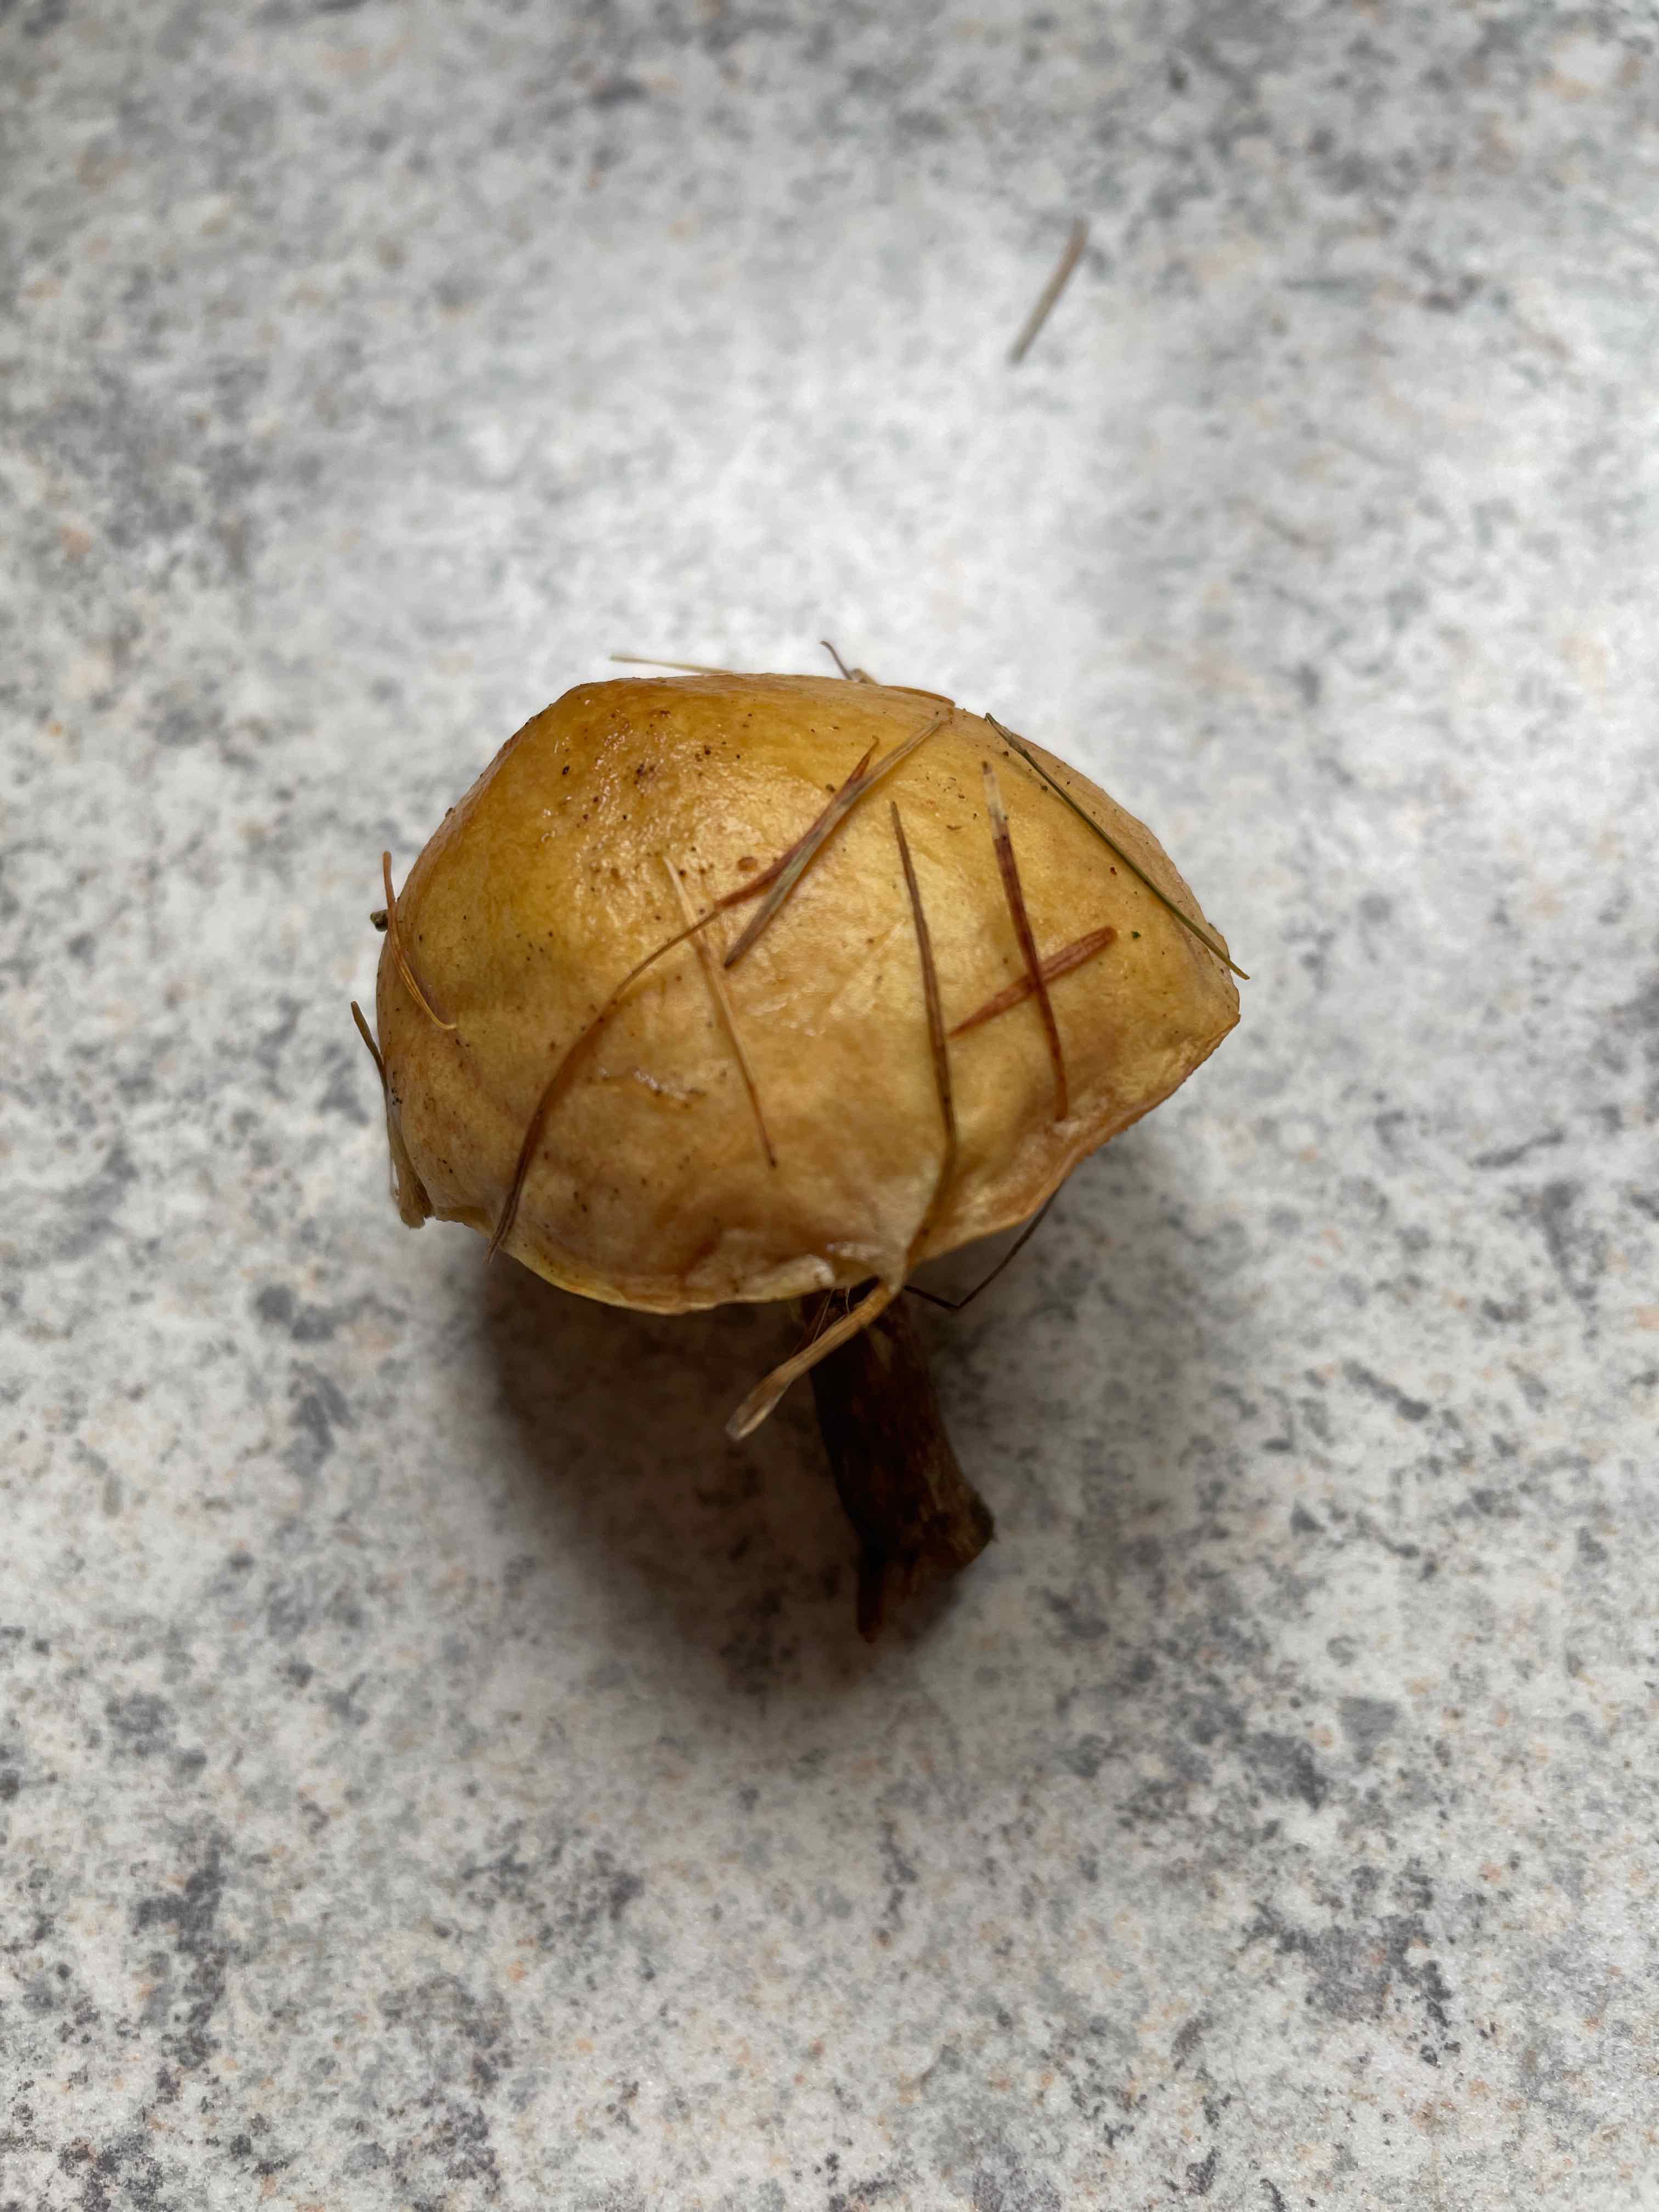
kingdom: Fungi
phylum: Basidiomycota
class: Agaricomycetes
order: Boletales
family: Suillaceae
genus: Suillus
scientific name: Suillus
